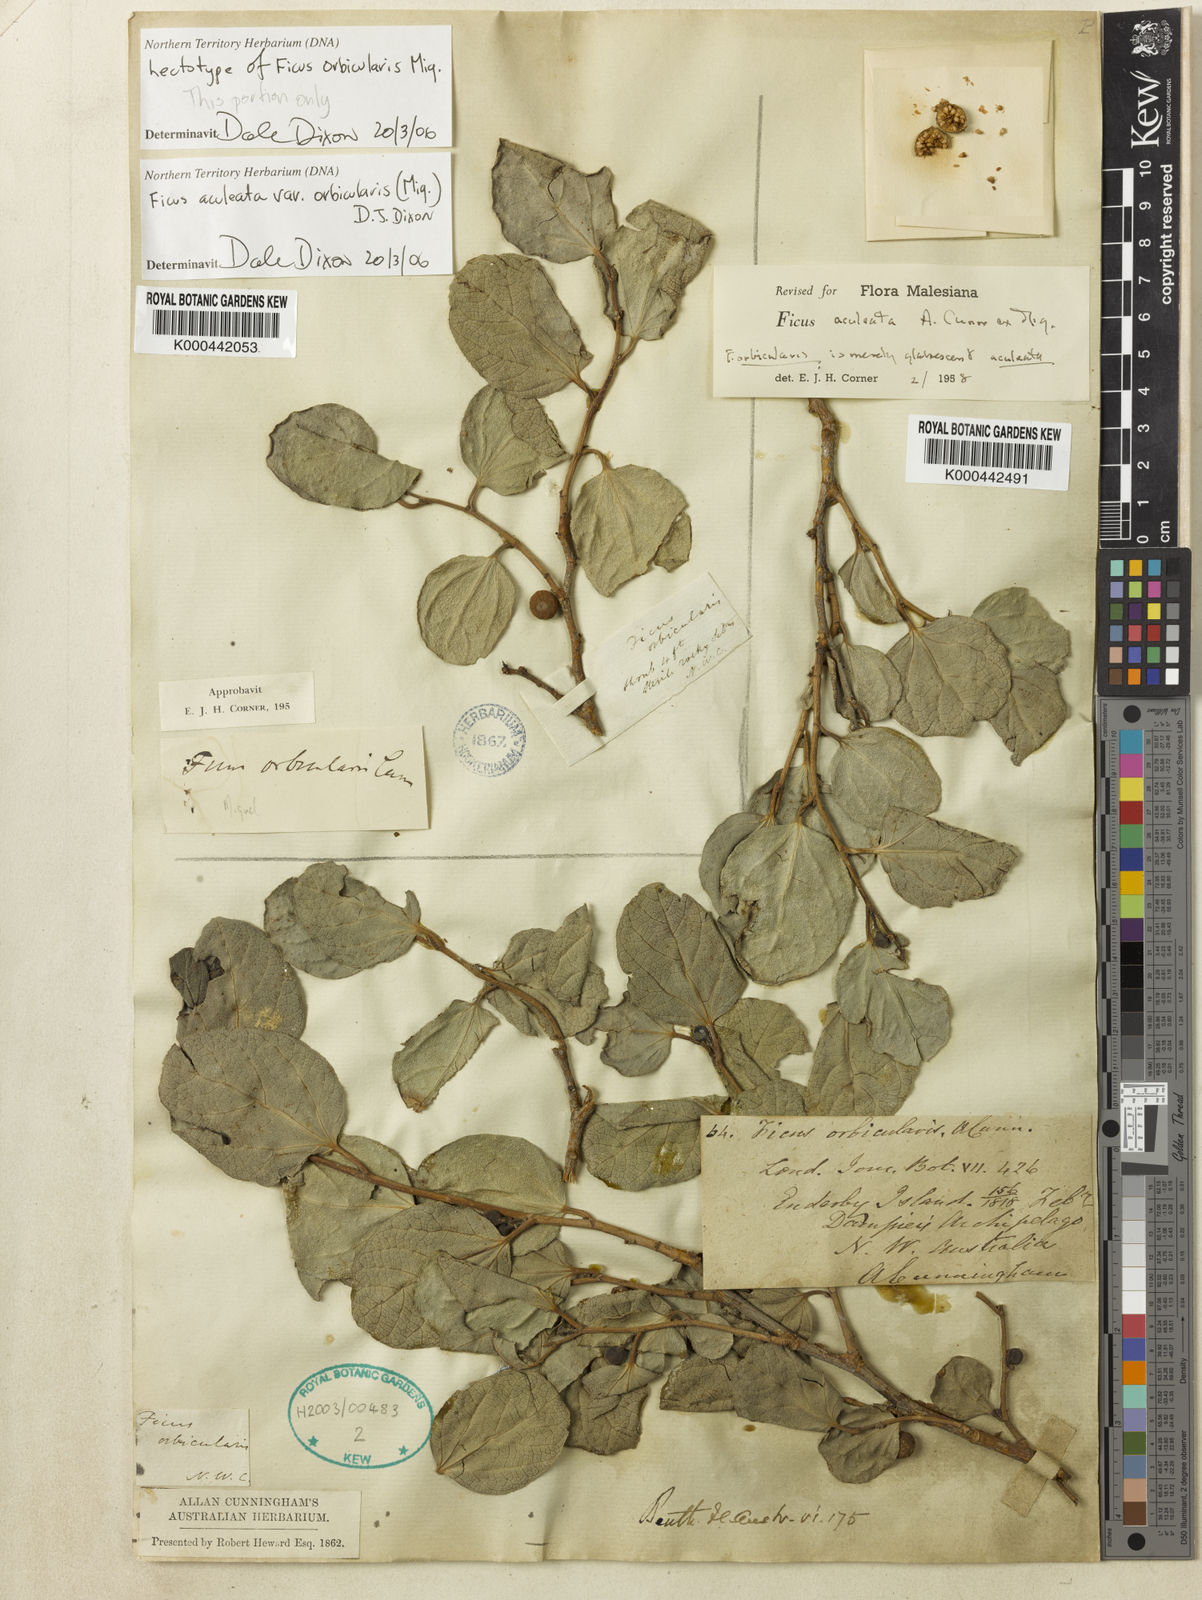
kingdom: Plantae
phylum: Tracheophyta
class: Magnoliopsida
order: Rosales
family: Moraceae
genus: Ficus
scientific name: Ficus opposita
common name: Figwood
